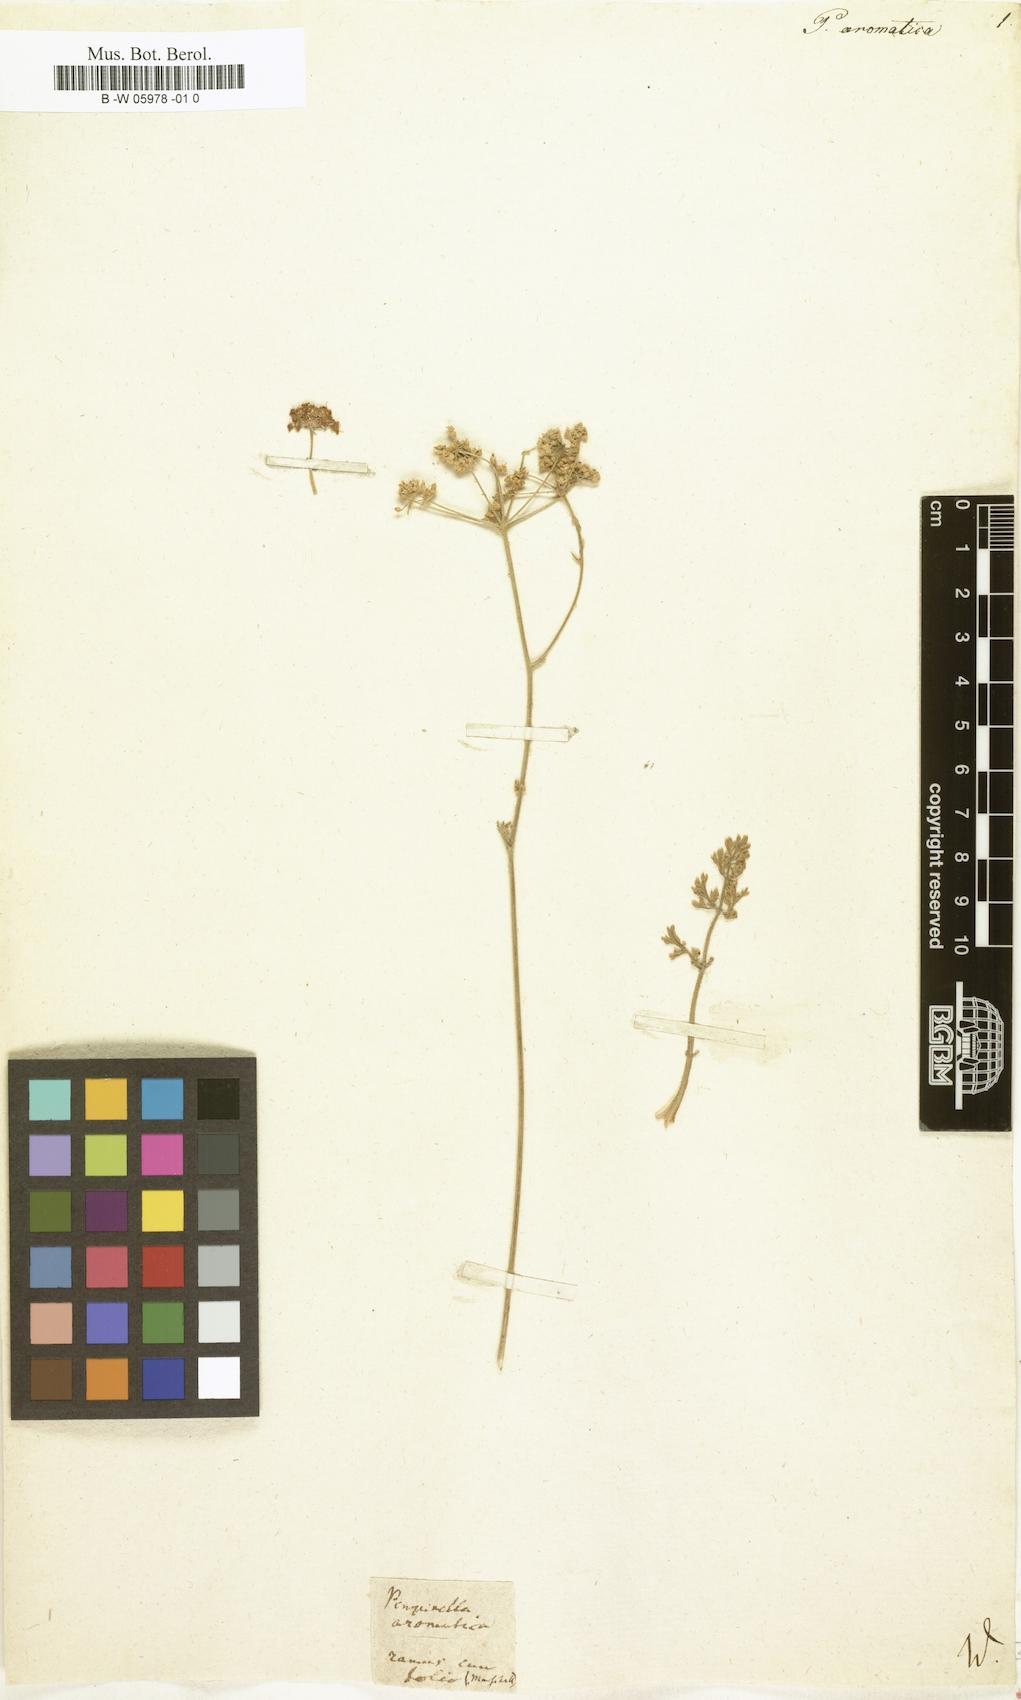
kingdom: Plantae
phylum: Tracheophyta
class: Magnoliopsida
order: Apiales
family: Apiaceae
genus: Pimpinella
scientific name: Pimpinella aromatica
